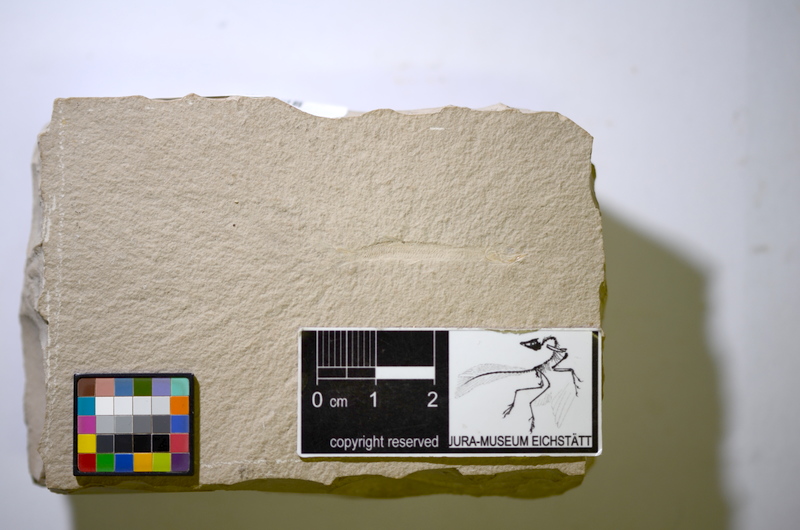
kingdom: Animalia
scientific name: Animalia
